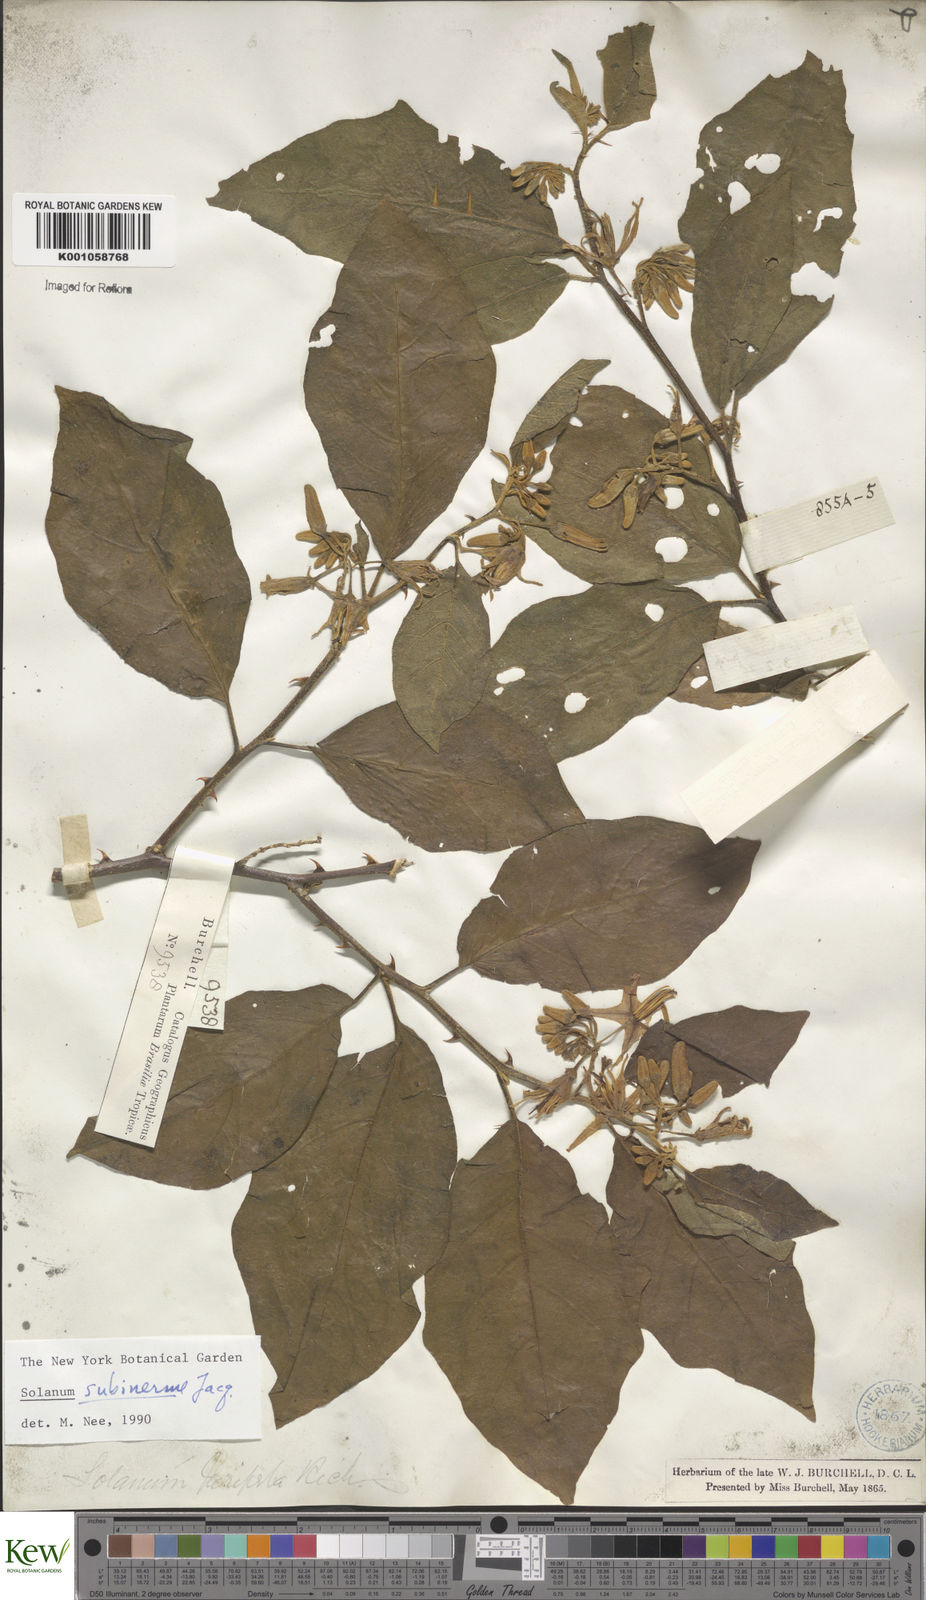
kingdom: Plantae
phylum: Tracheophyta
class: Magnoliopsida
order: Solanales
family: Solanaceae
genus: Solanum
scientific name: Solanum subinerme
